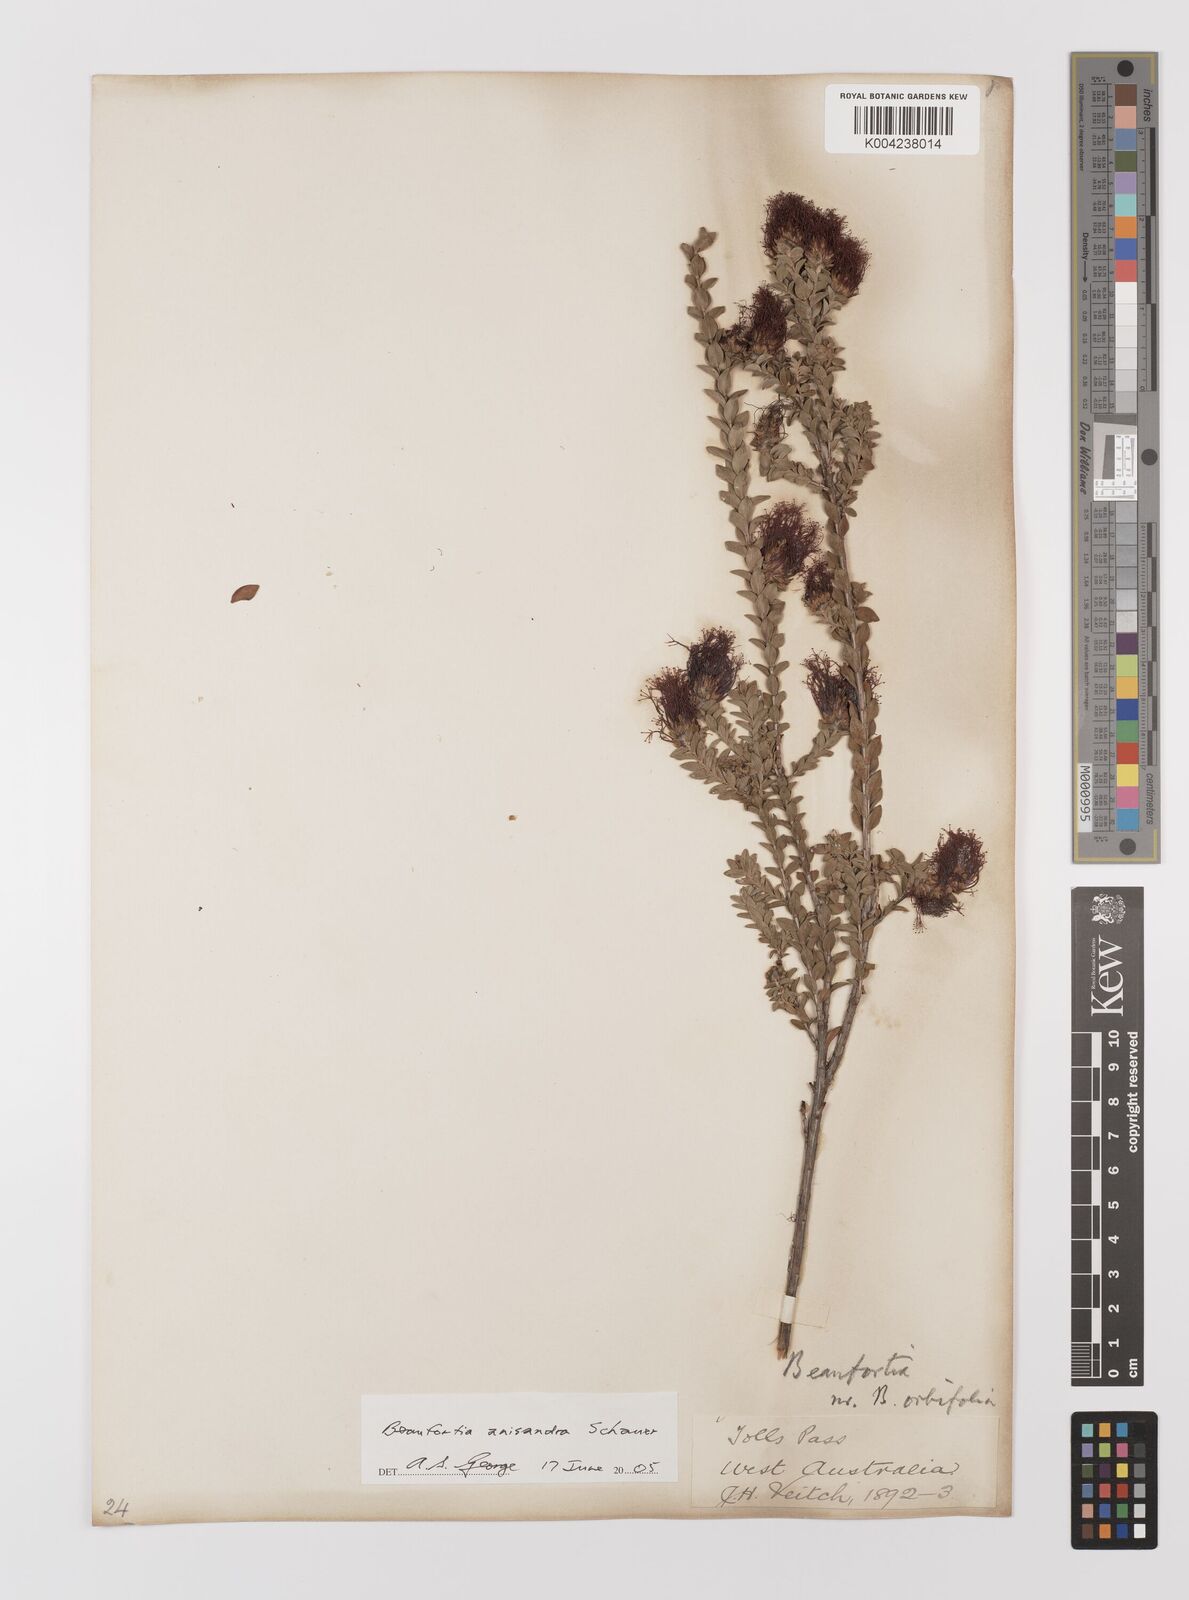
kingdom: Plantae
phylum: Tracheophyta
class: Magnoliopsida
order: Myrtales
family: Myrtaceae
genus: Melaleuca
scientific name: Melaleuca anisandra
